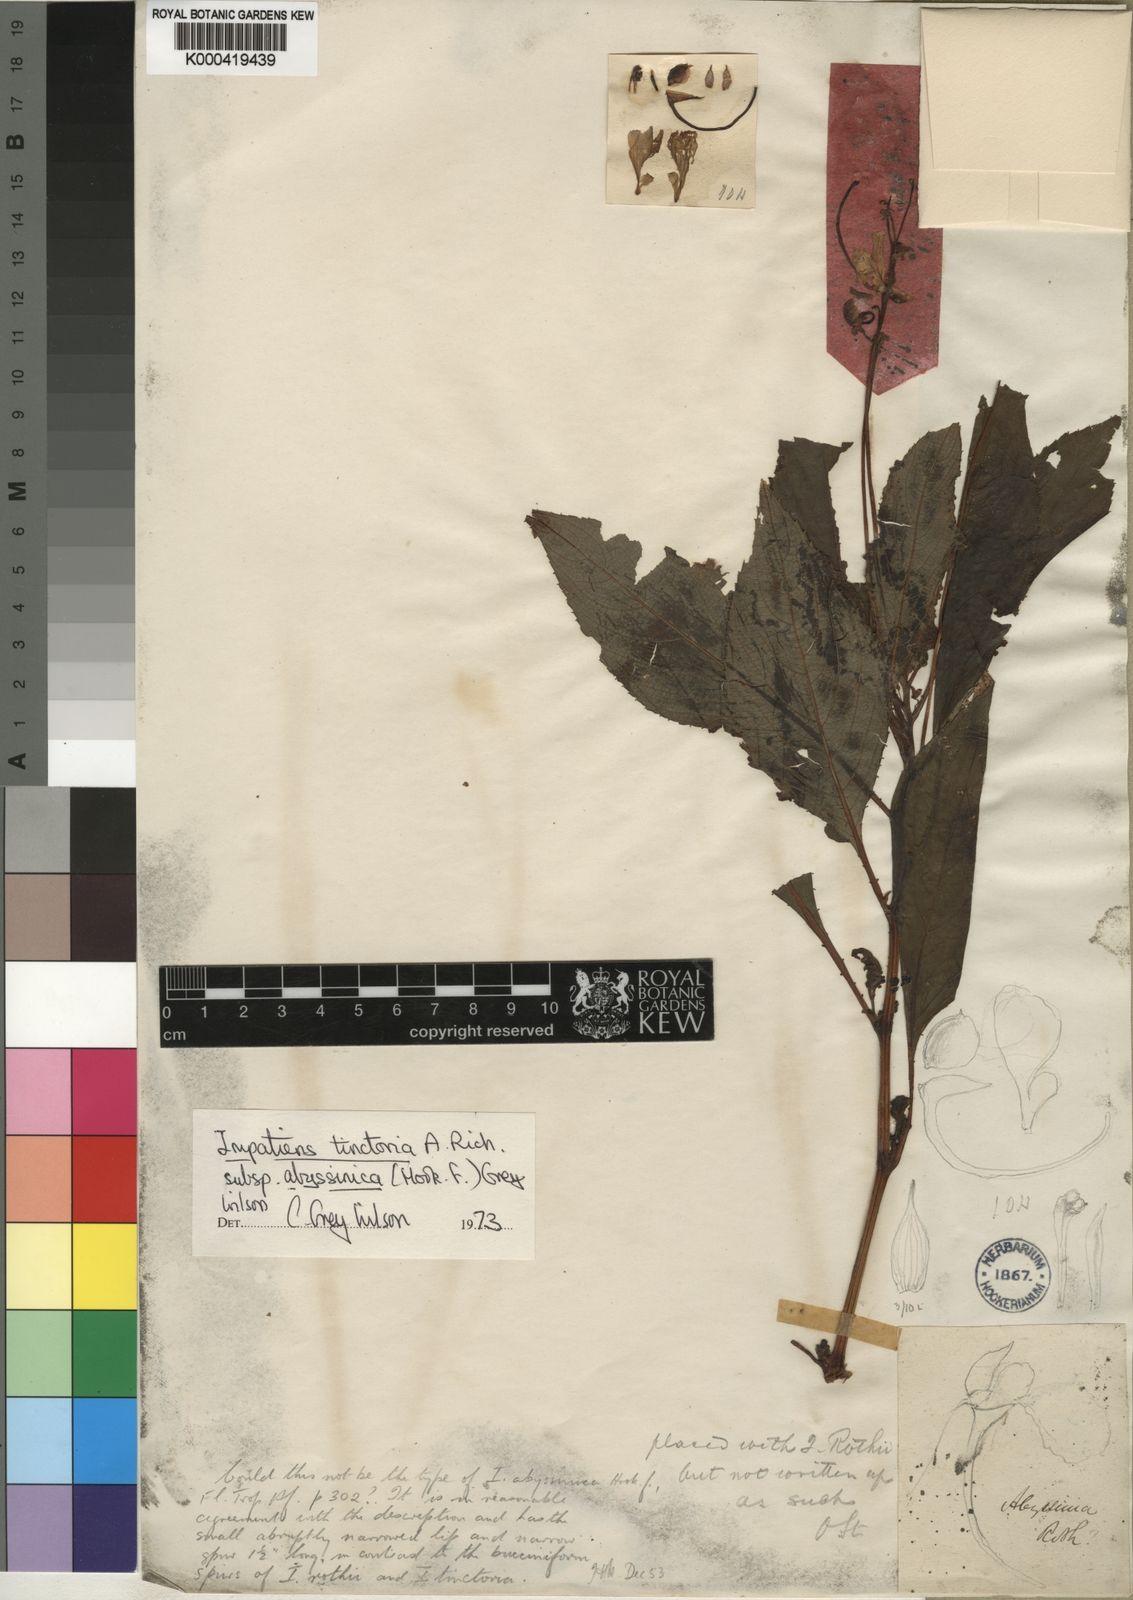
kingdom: Plantae
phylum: Tracheophyta
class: Magnoliopsida
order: Ericales
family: Balsaminaceae
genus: Impatiens
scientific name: Impatiens tinctoria
